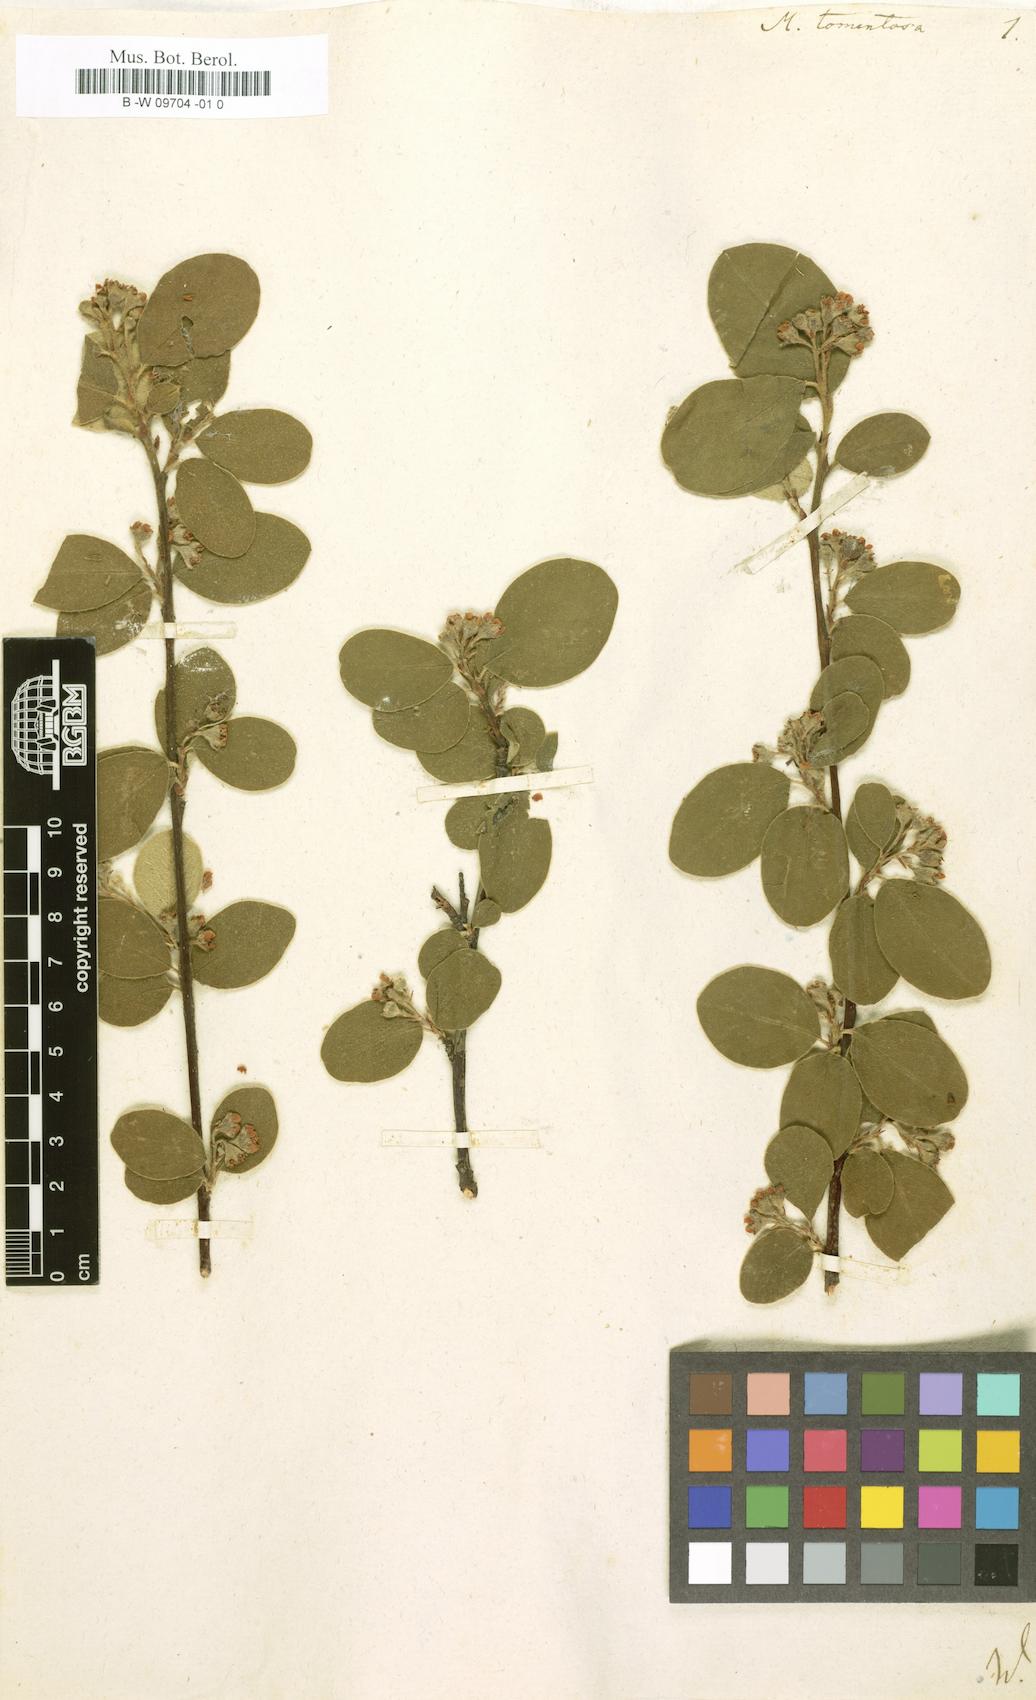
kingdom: Plantae
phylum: Tracheophyta
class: Magnoliopsida
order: Rosales
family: Rosaceae
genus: Mespilus
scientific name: Mespilus tomentosa
